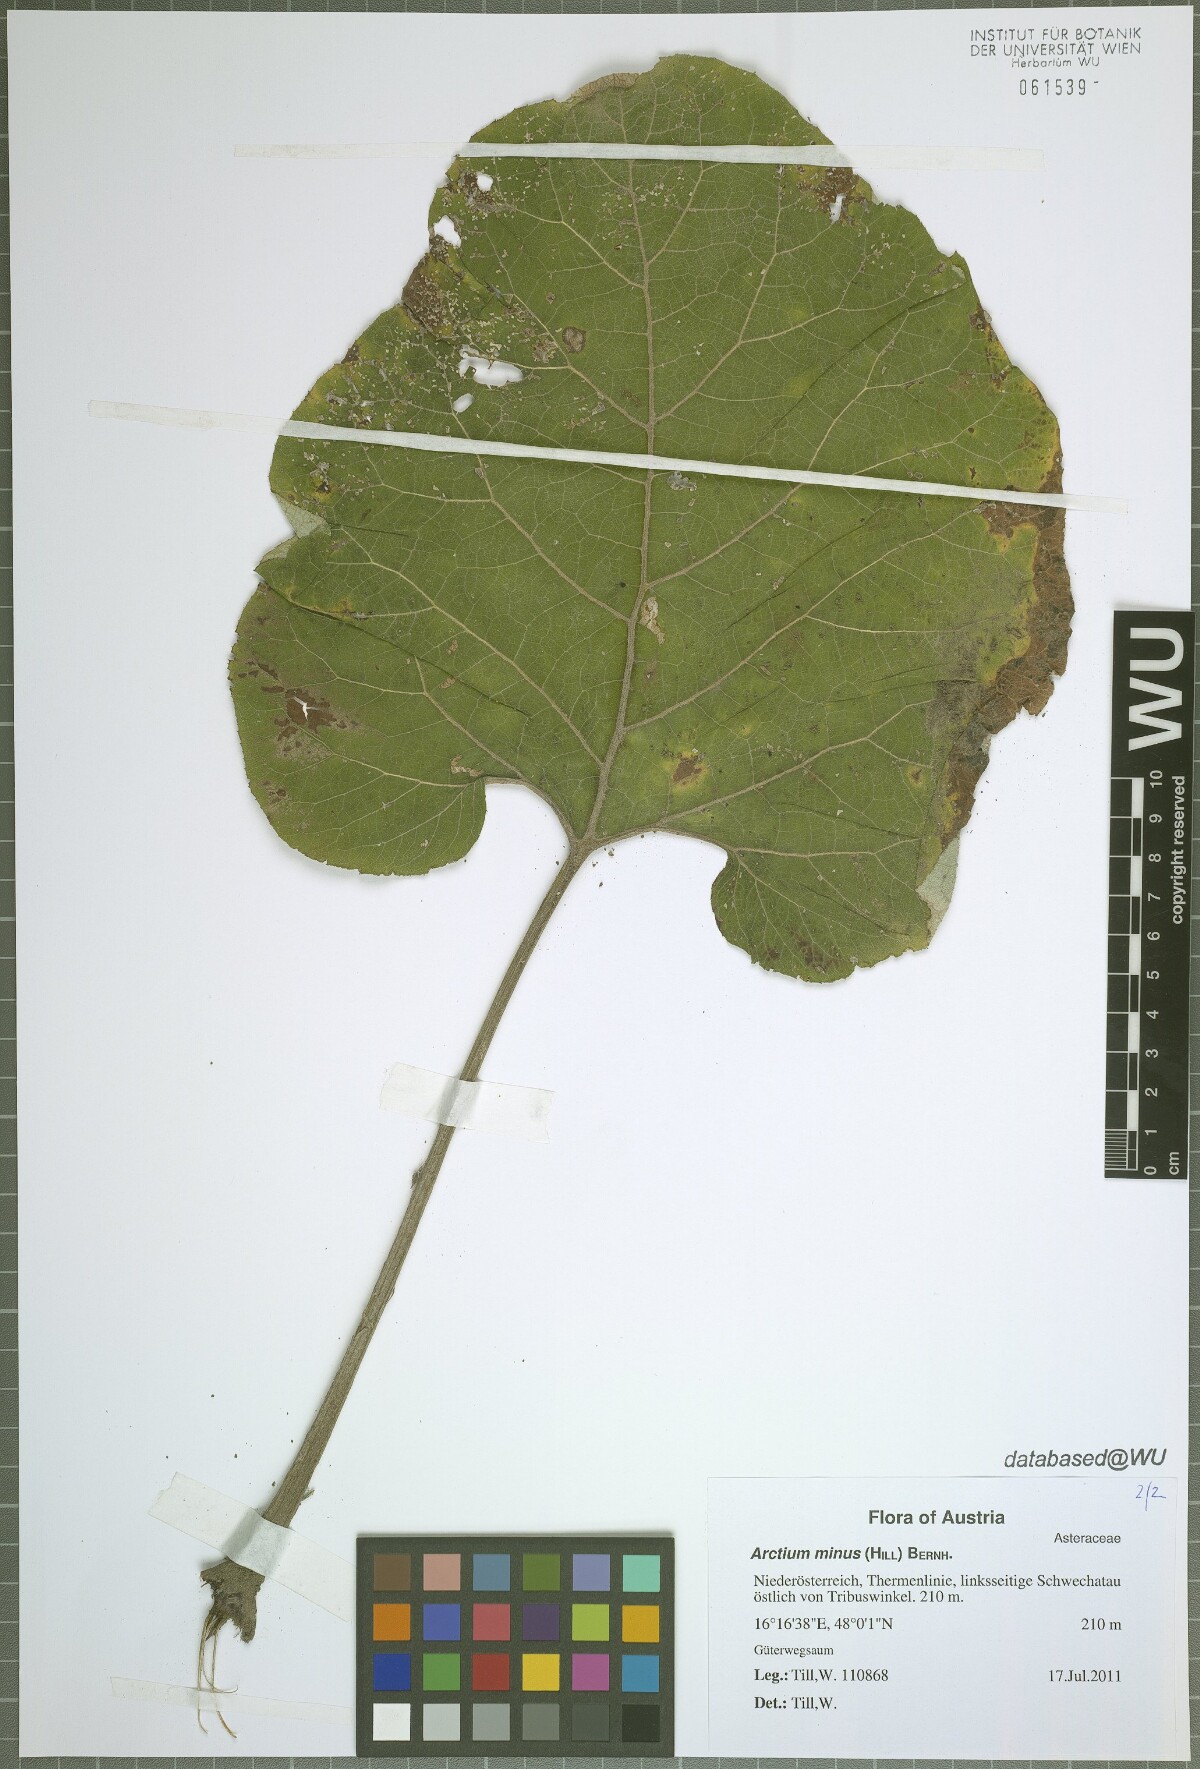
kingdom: Plantae
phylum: Tracheophyta
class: Magnoliopsida
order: Asterales
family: Asteraceae
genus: Arctium
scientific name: Arctium minus
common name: Lesser burdock
